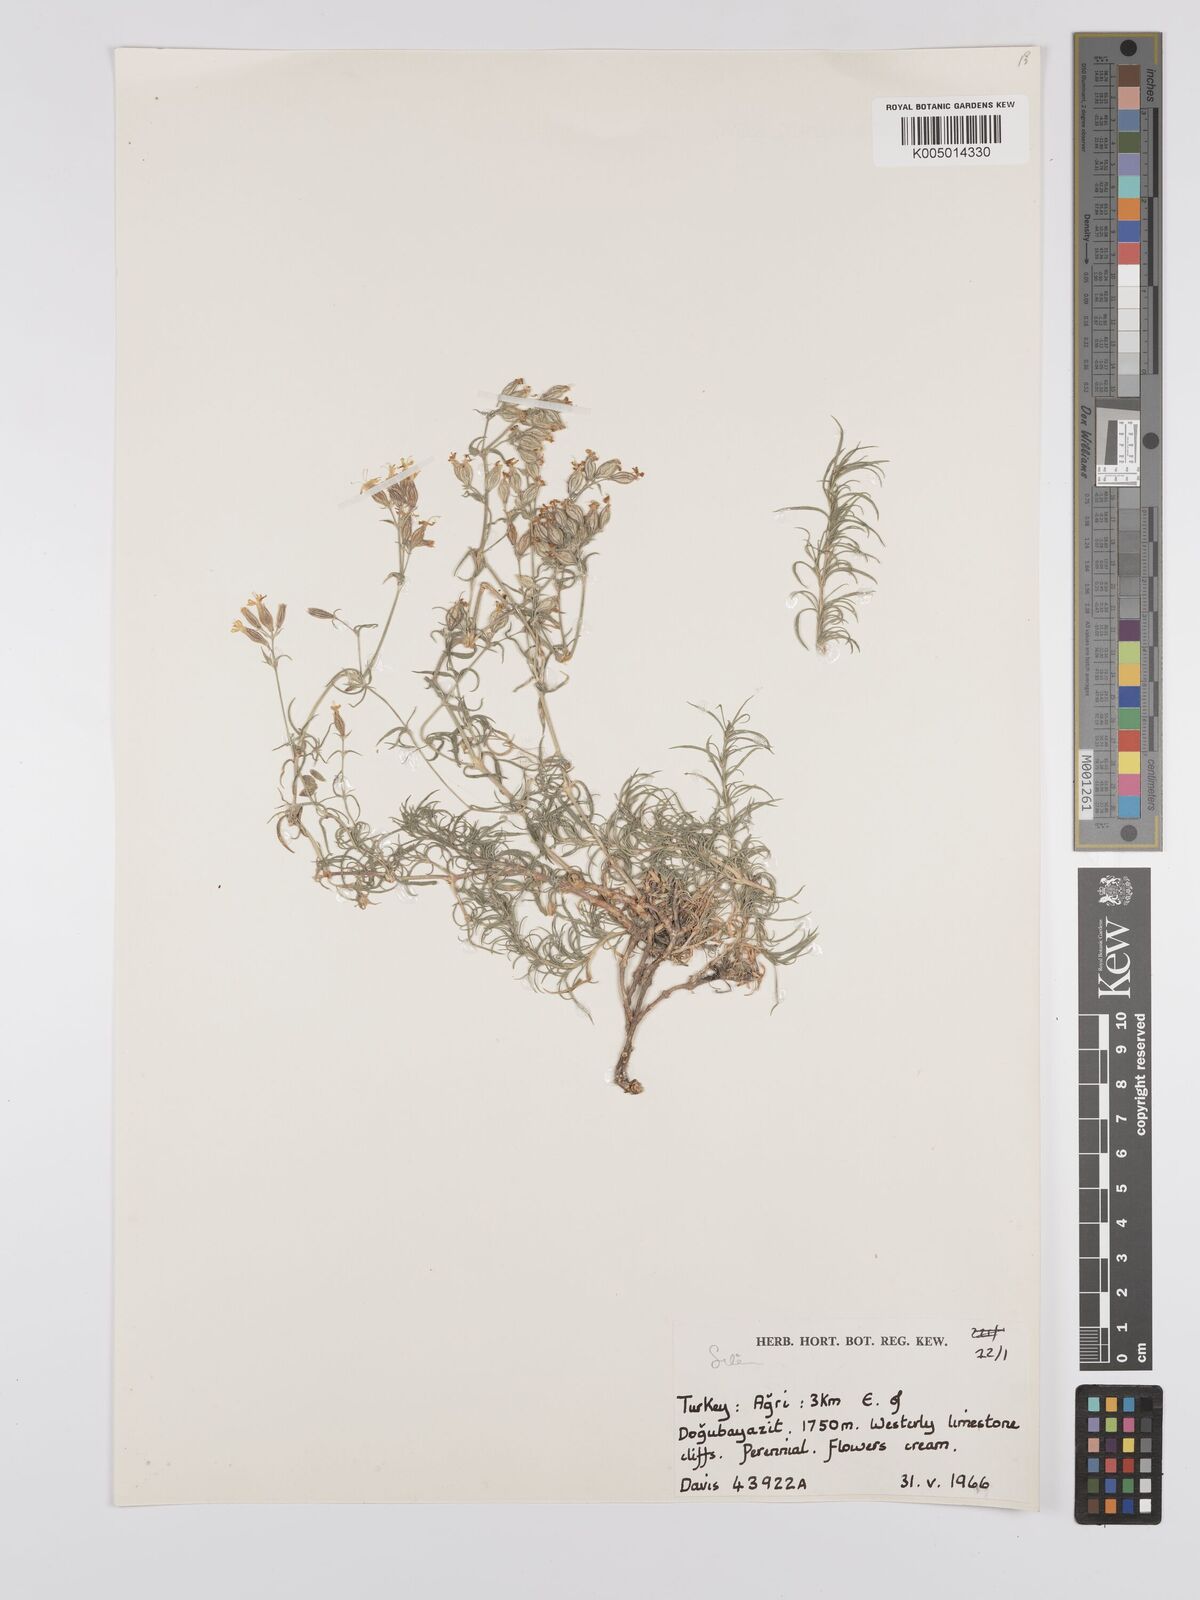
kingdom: Plantae
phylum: Tracheophyta
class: Magnoliopsida
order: Caryophyllales
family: Caryophyllaceae
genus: Silene
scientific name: Silene
